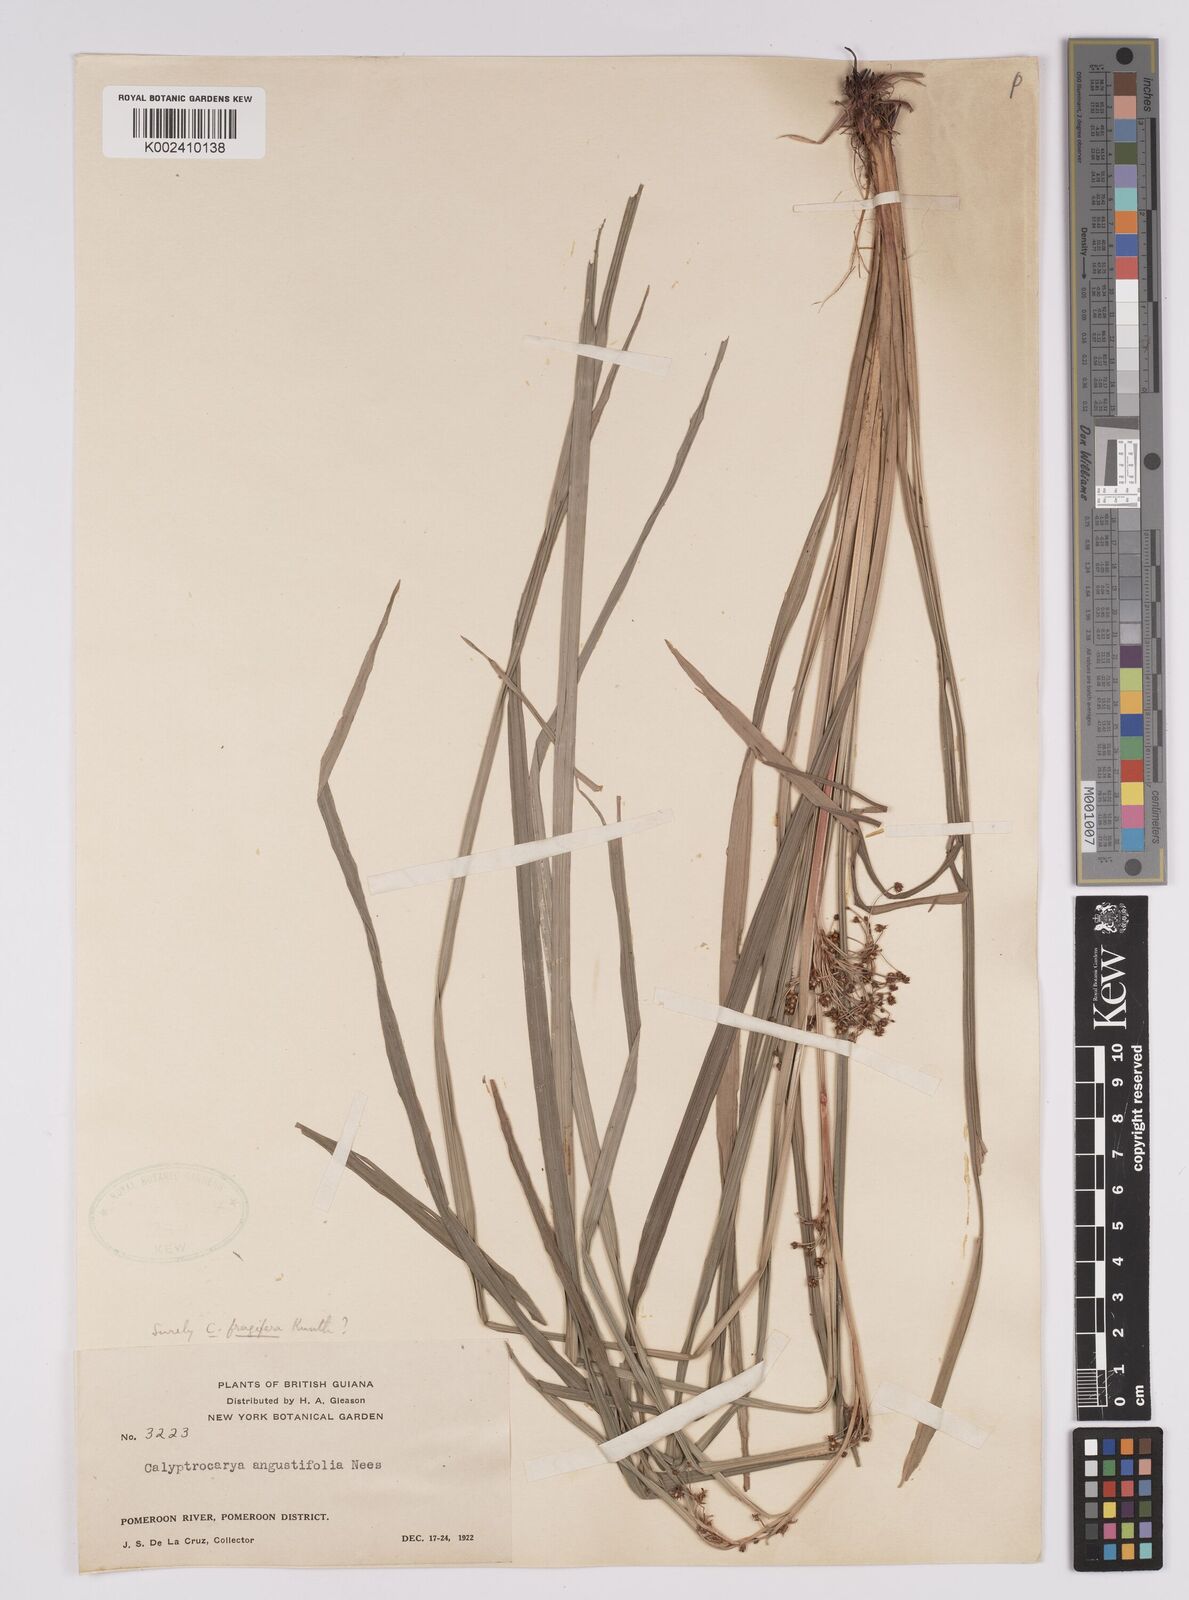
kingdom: Plantae
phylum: Tracheophyta
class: Liliopsida
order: Poales
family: Cyperaceae
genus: Calyptrocarya
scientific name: Calyptrocarya glomerulata
